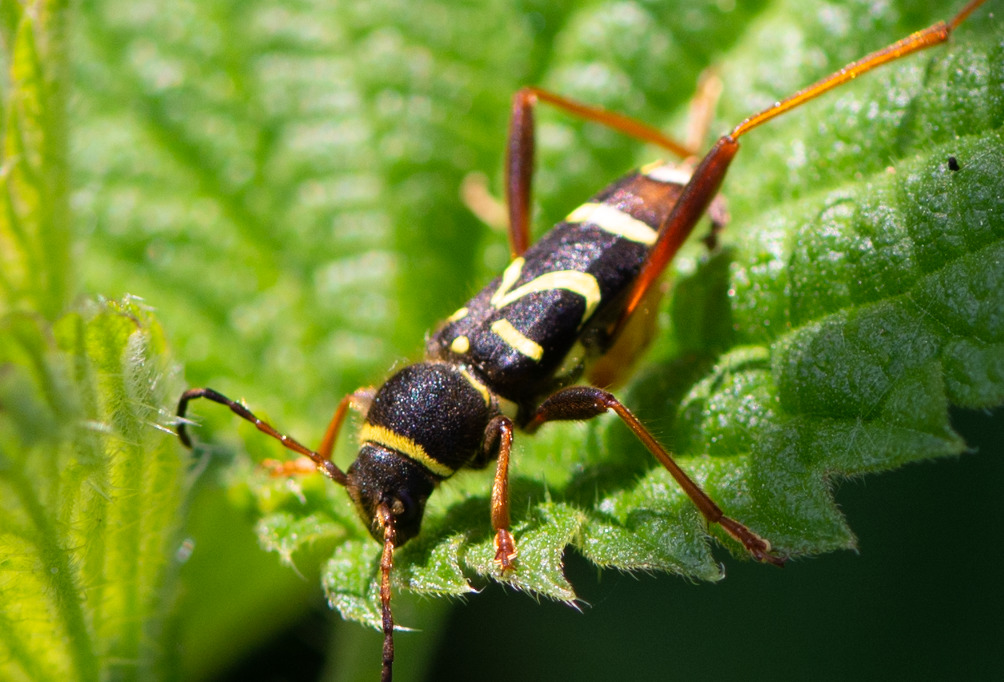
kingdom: Animalia
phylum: Arthropoda
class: Insecta
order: Coleoptera
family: Cerambycidae
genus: Clytus
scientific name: Clytus arietis
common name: Lille hvepsebuk
